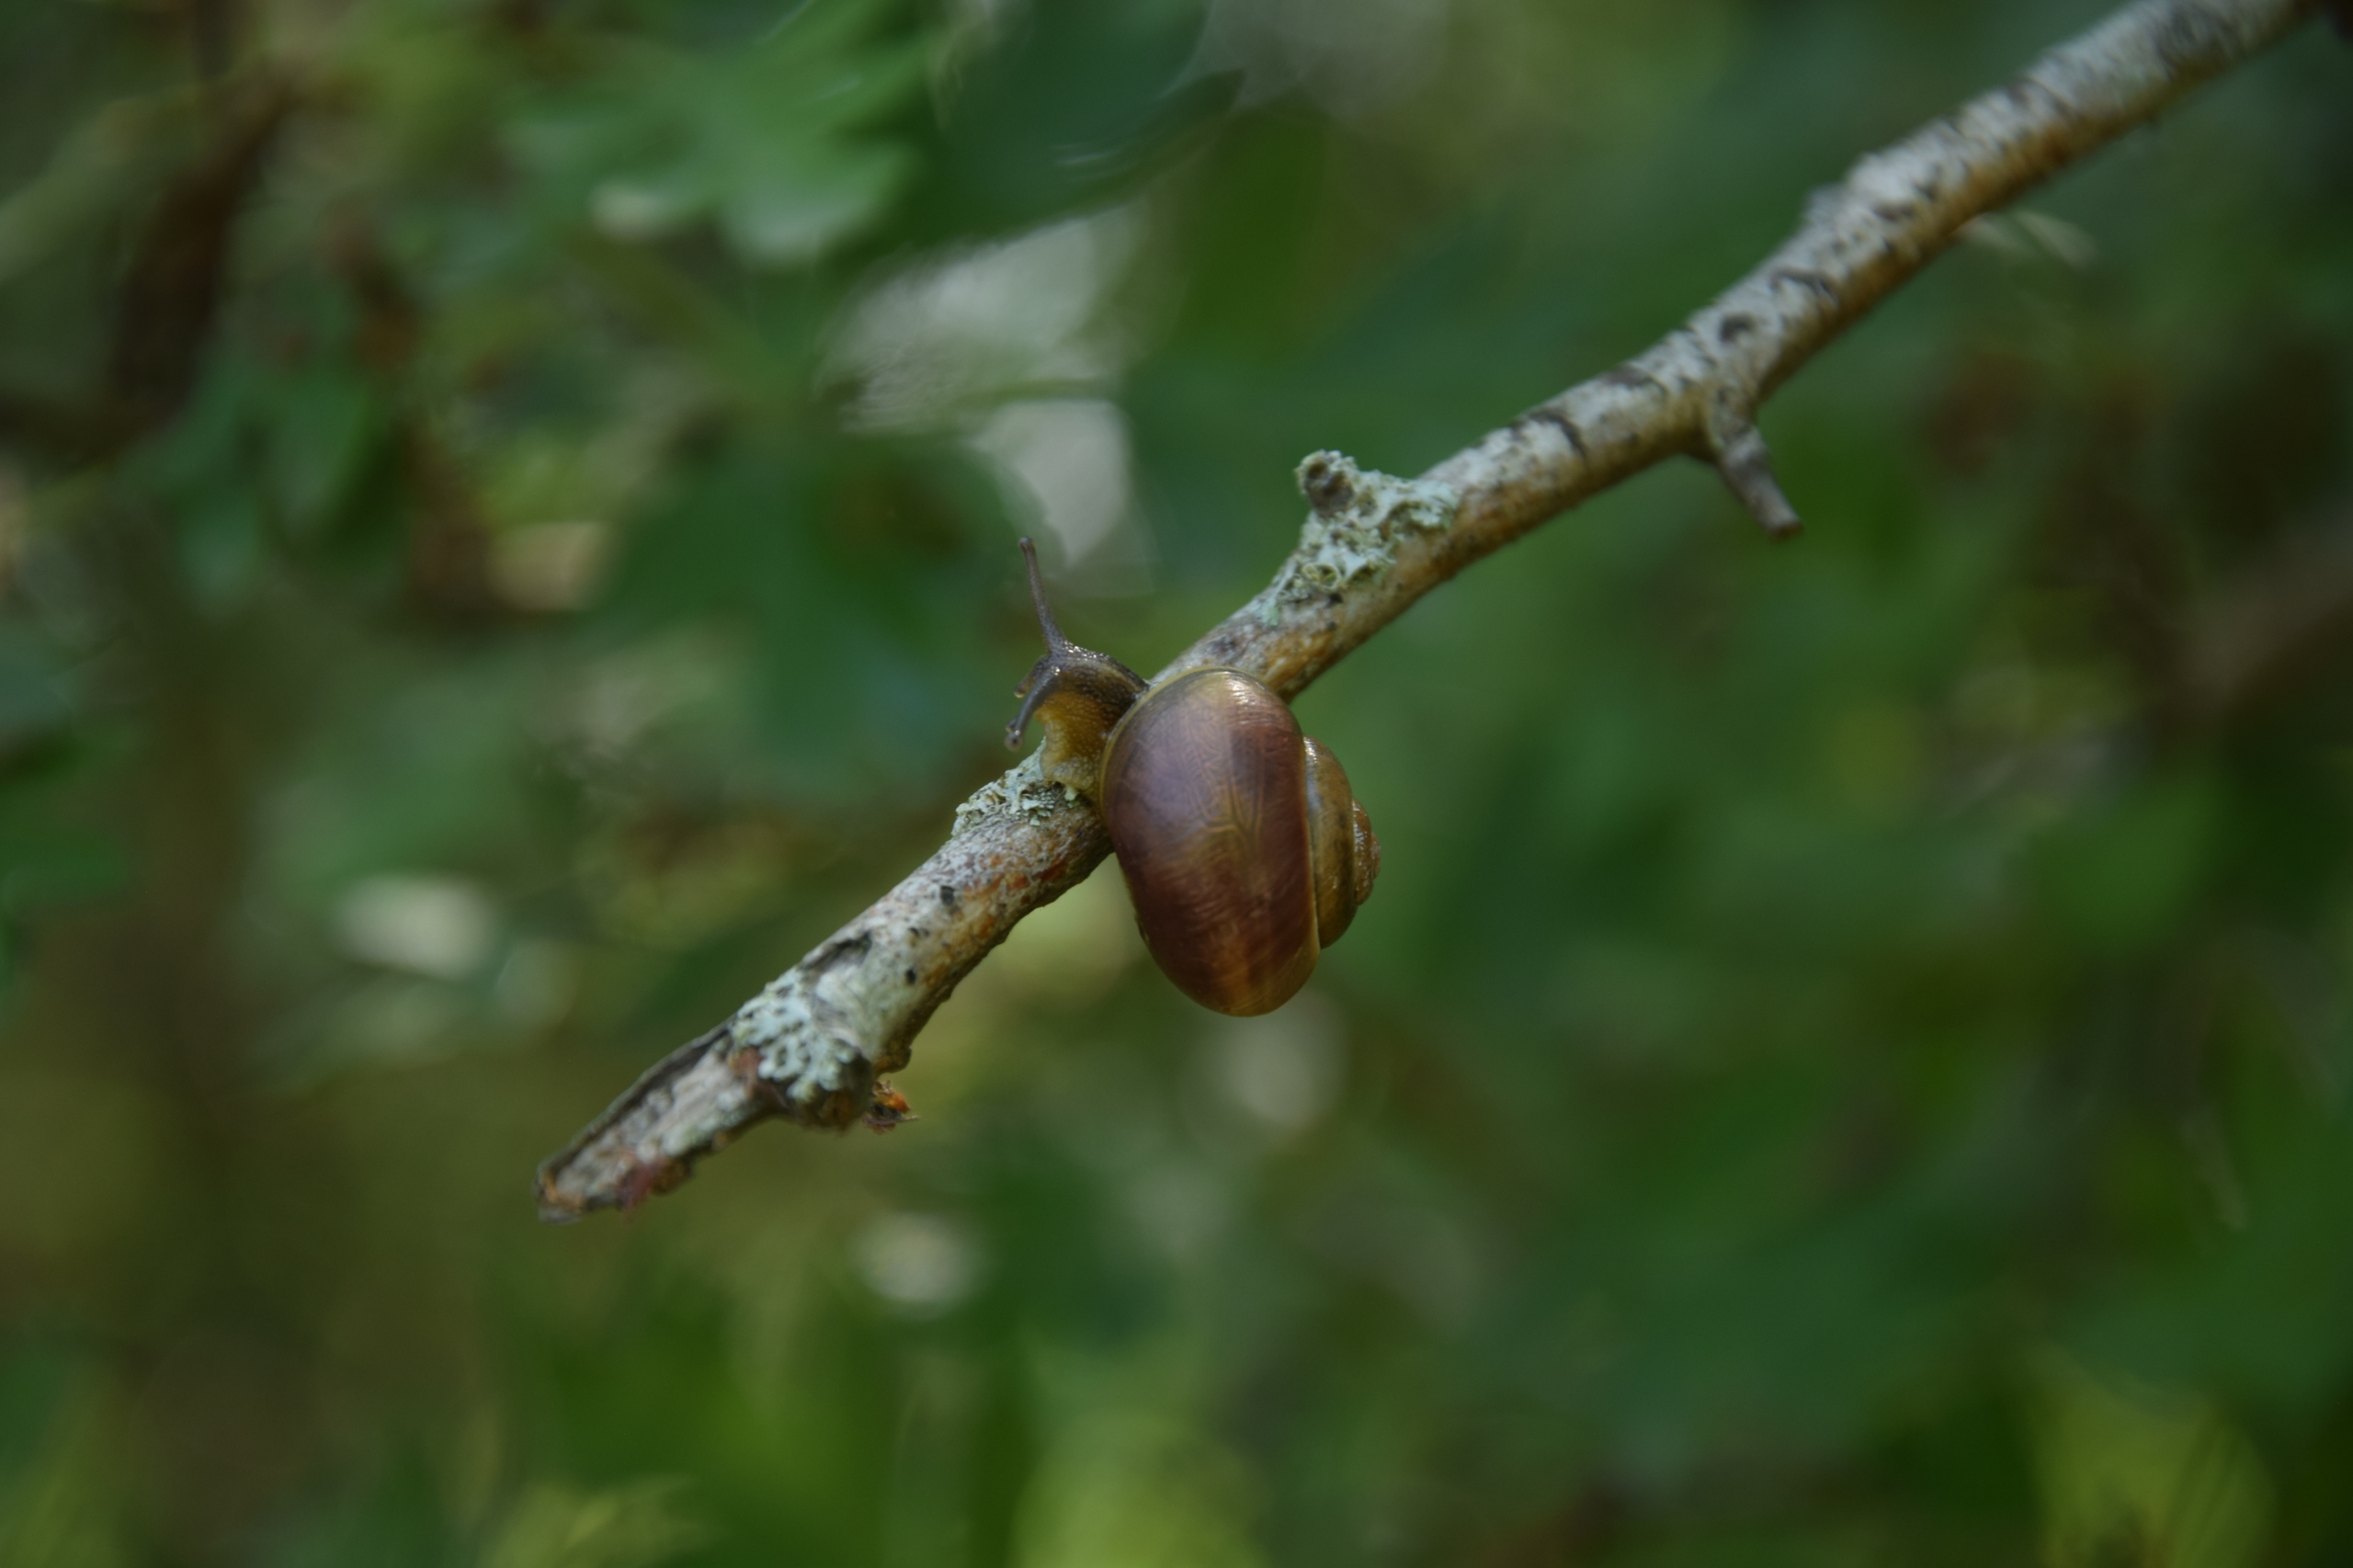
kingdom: Animalia
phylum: Mollusca
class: Gastropoda
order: Stylommatophora
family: Helicidae
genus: Cepaea
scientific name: Cepaea hortensis
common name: Havesnegl
